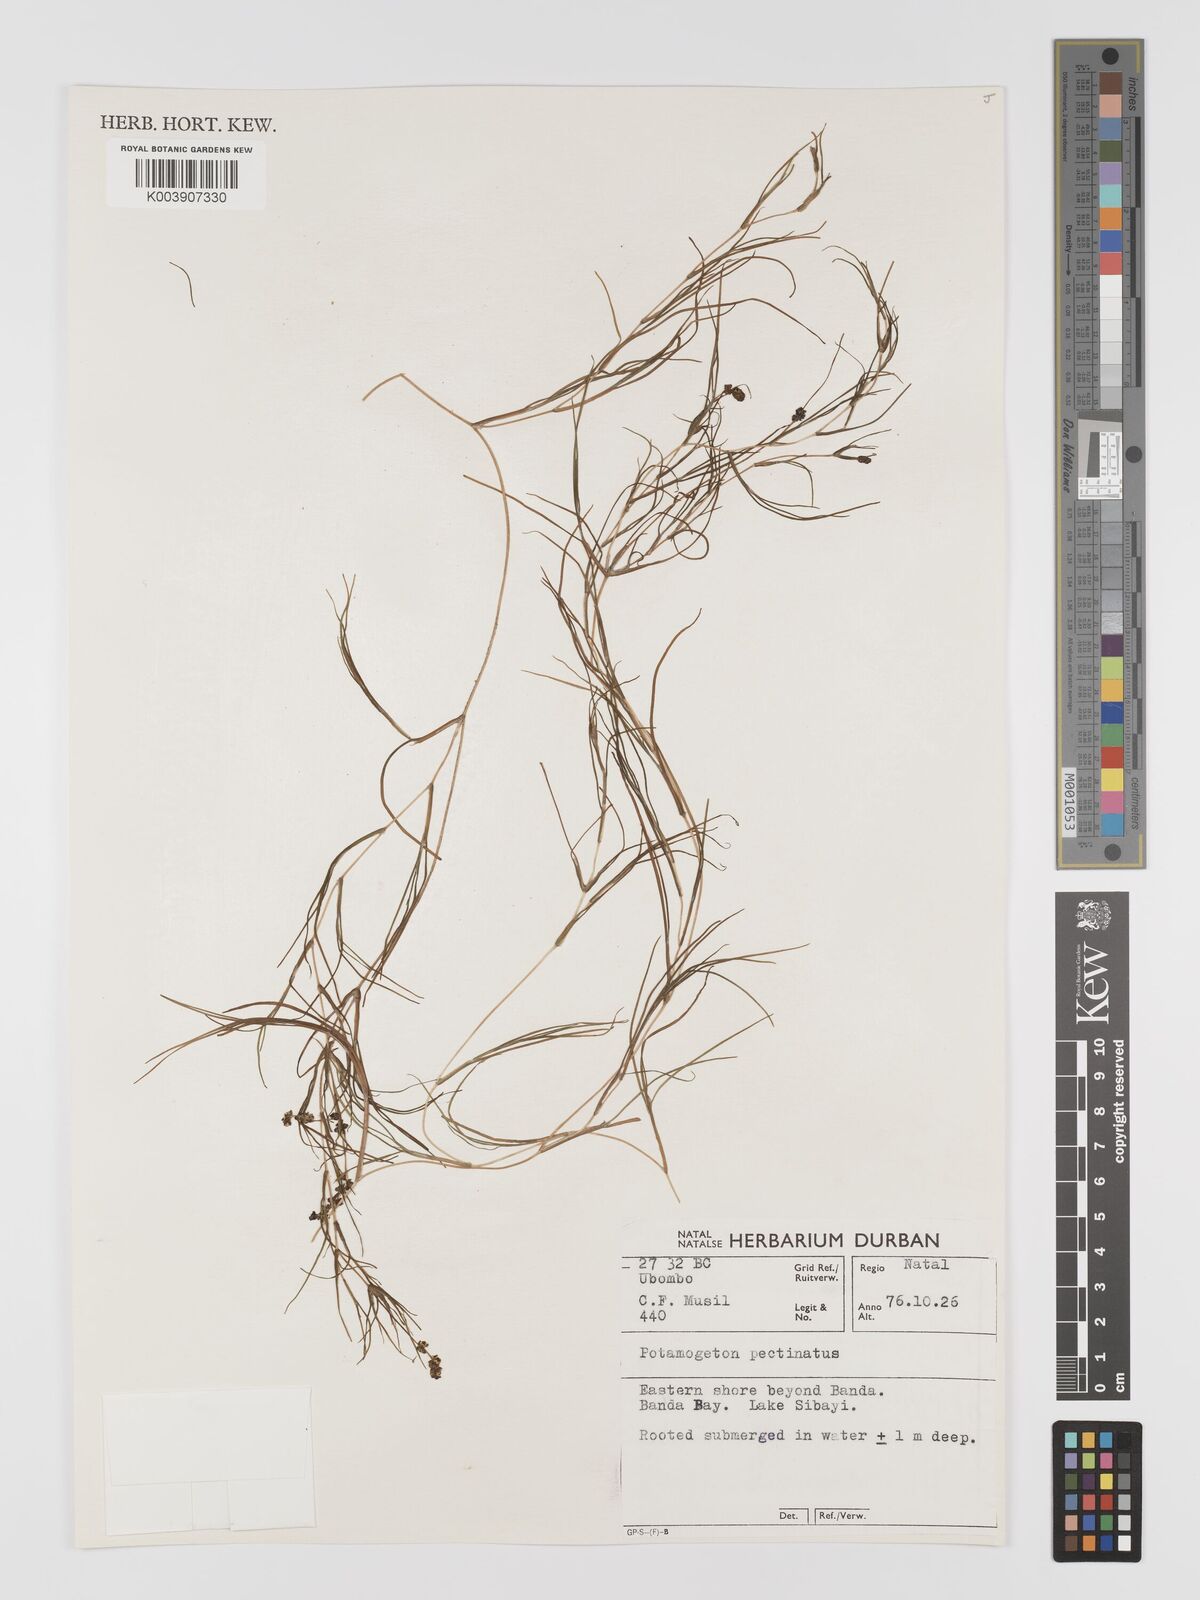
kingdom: Plantae
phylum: Tracheophyta
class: Liliopsida
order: Alismatales
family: Potamogetonaceae
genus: Stuckenia
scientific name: Stuckenia pectinata
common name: Sago pondweed
